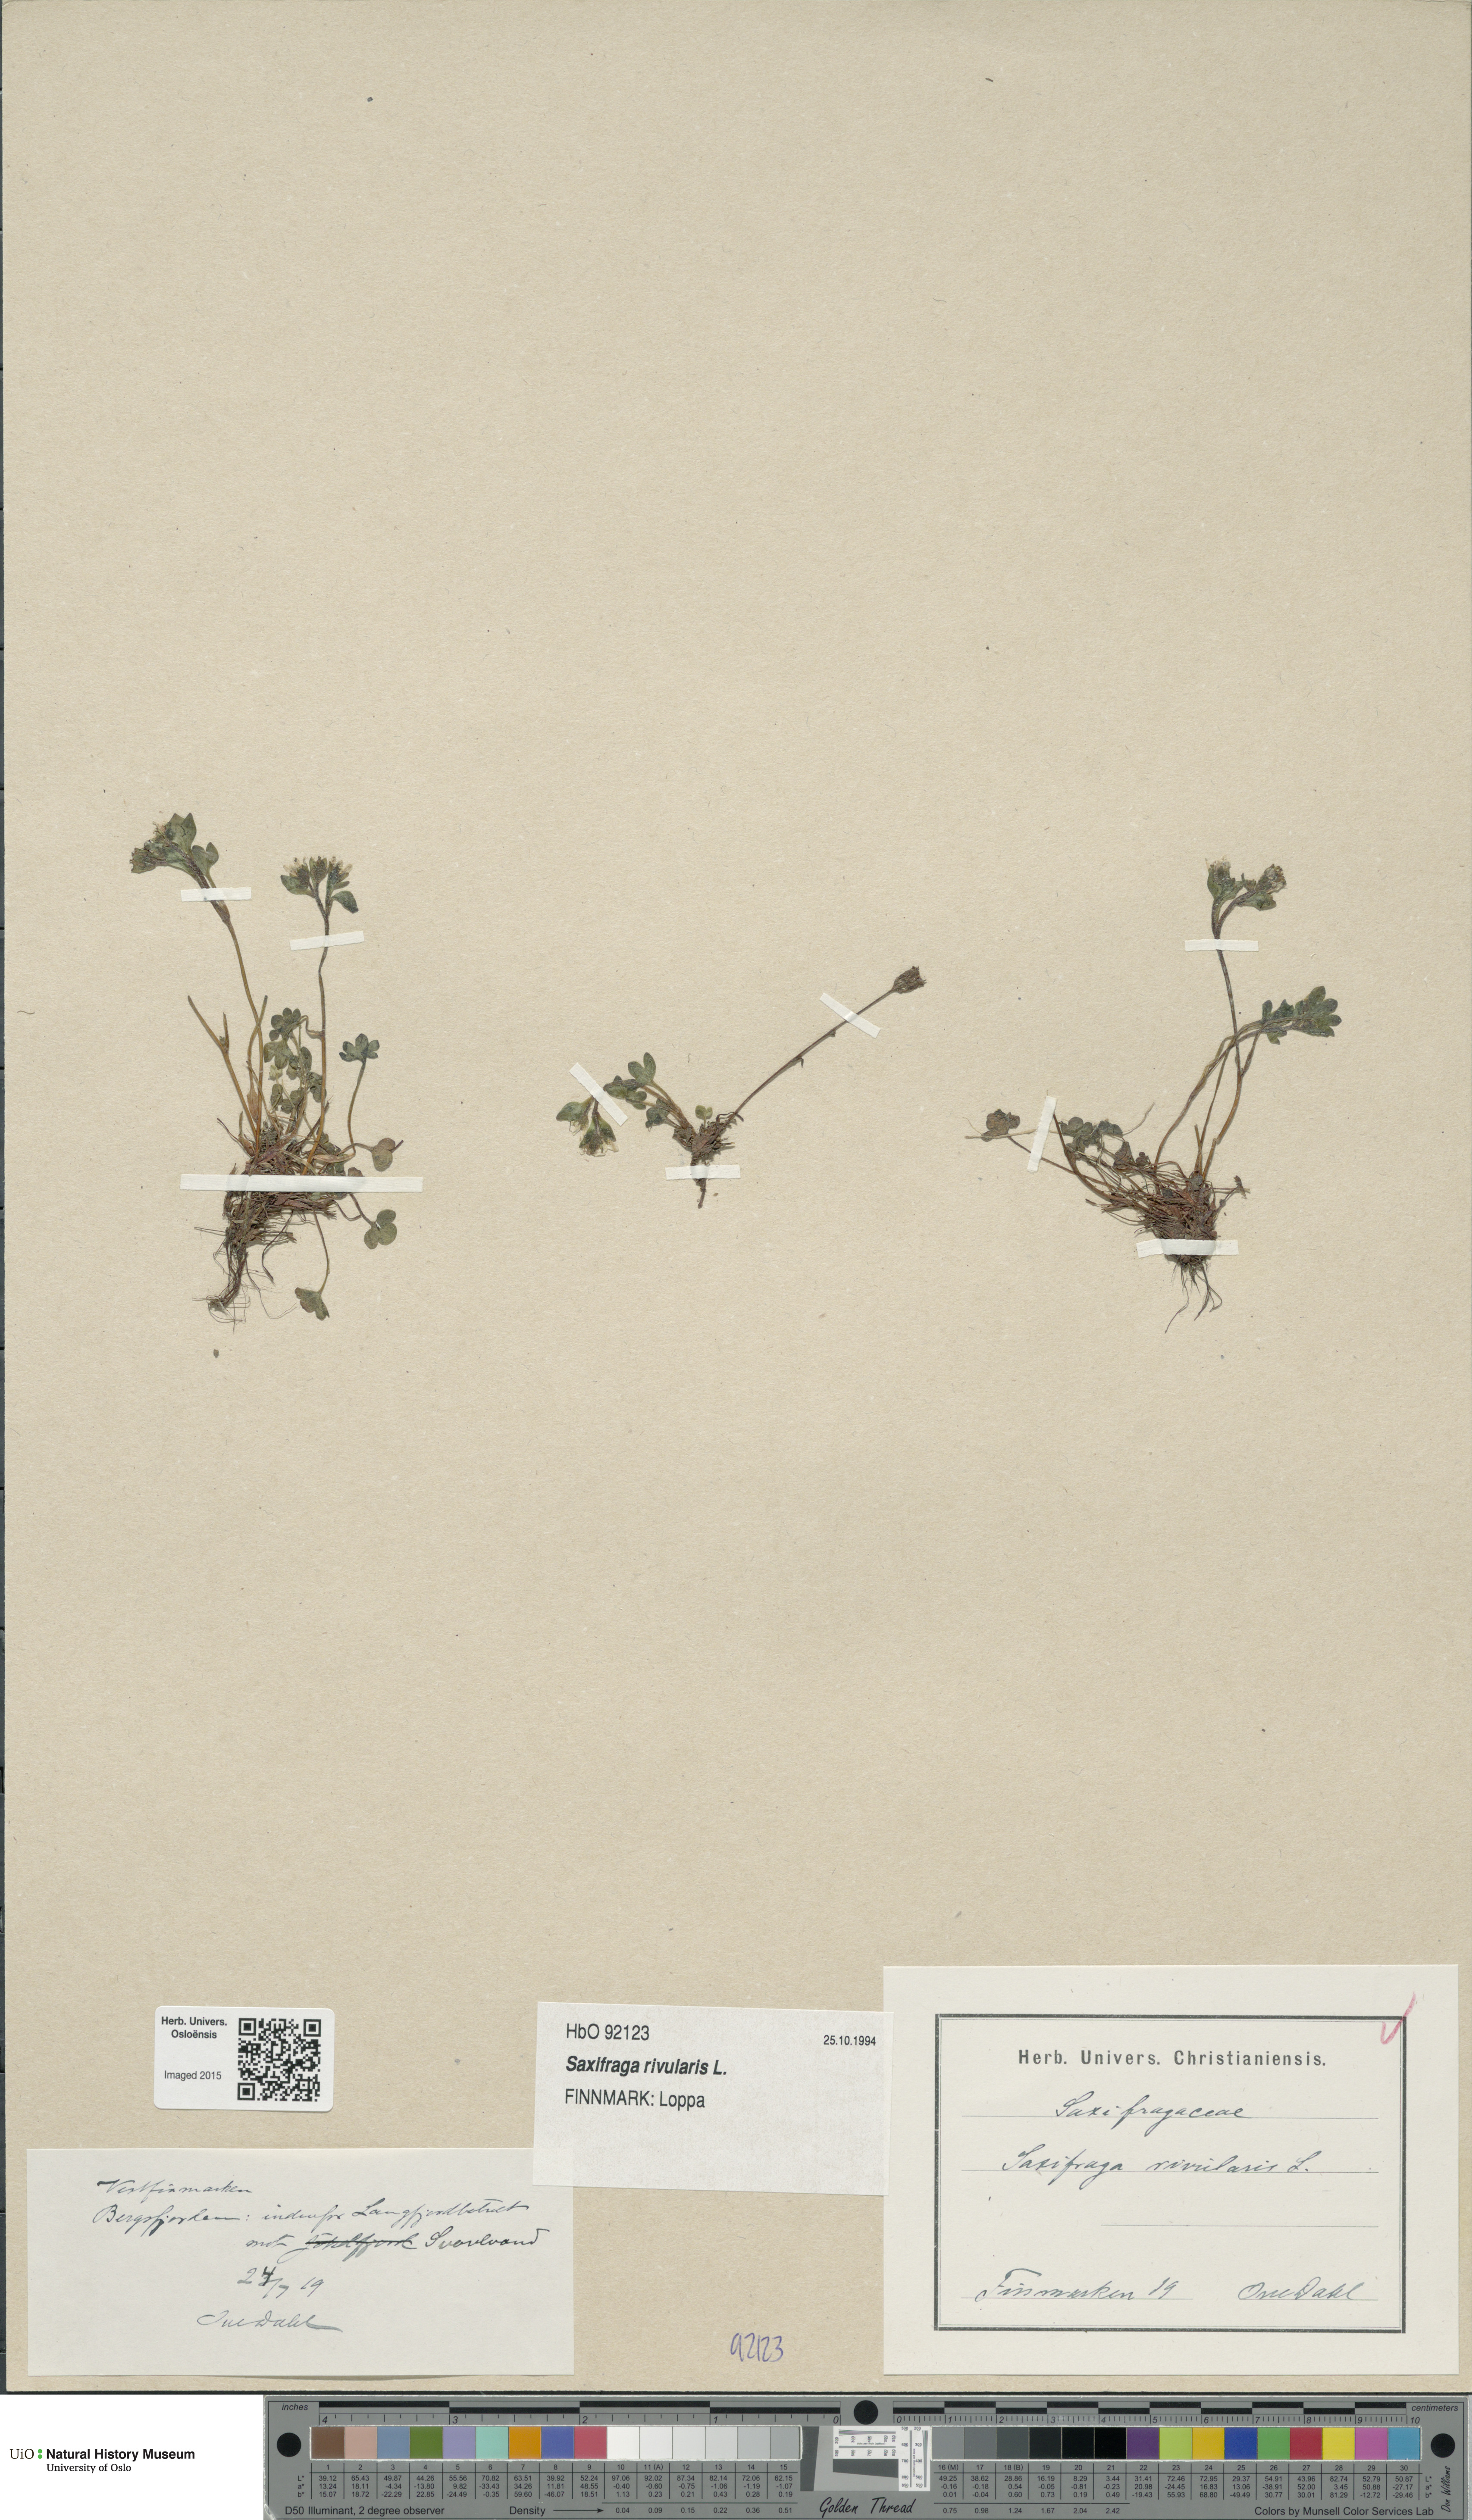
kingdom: Plantae
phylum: Tracheophyta
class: Magnoliopsida
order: Saxifragales
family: Saxifragaceae
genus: Saxifraga
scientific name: Saxifraga rivularis
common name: Highland saxifrage
